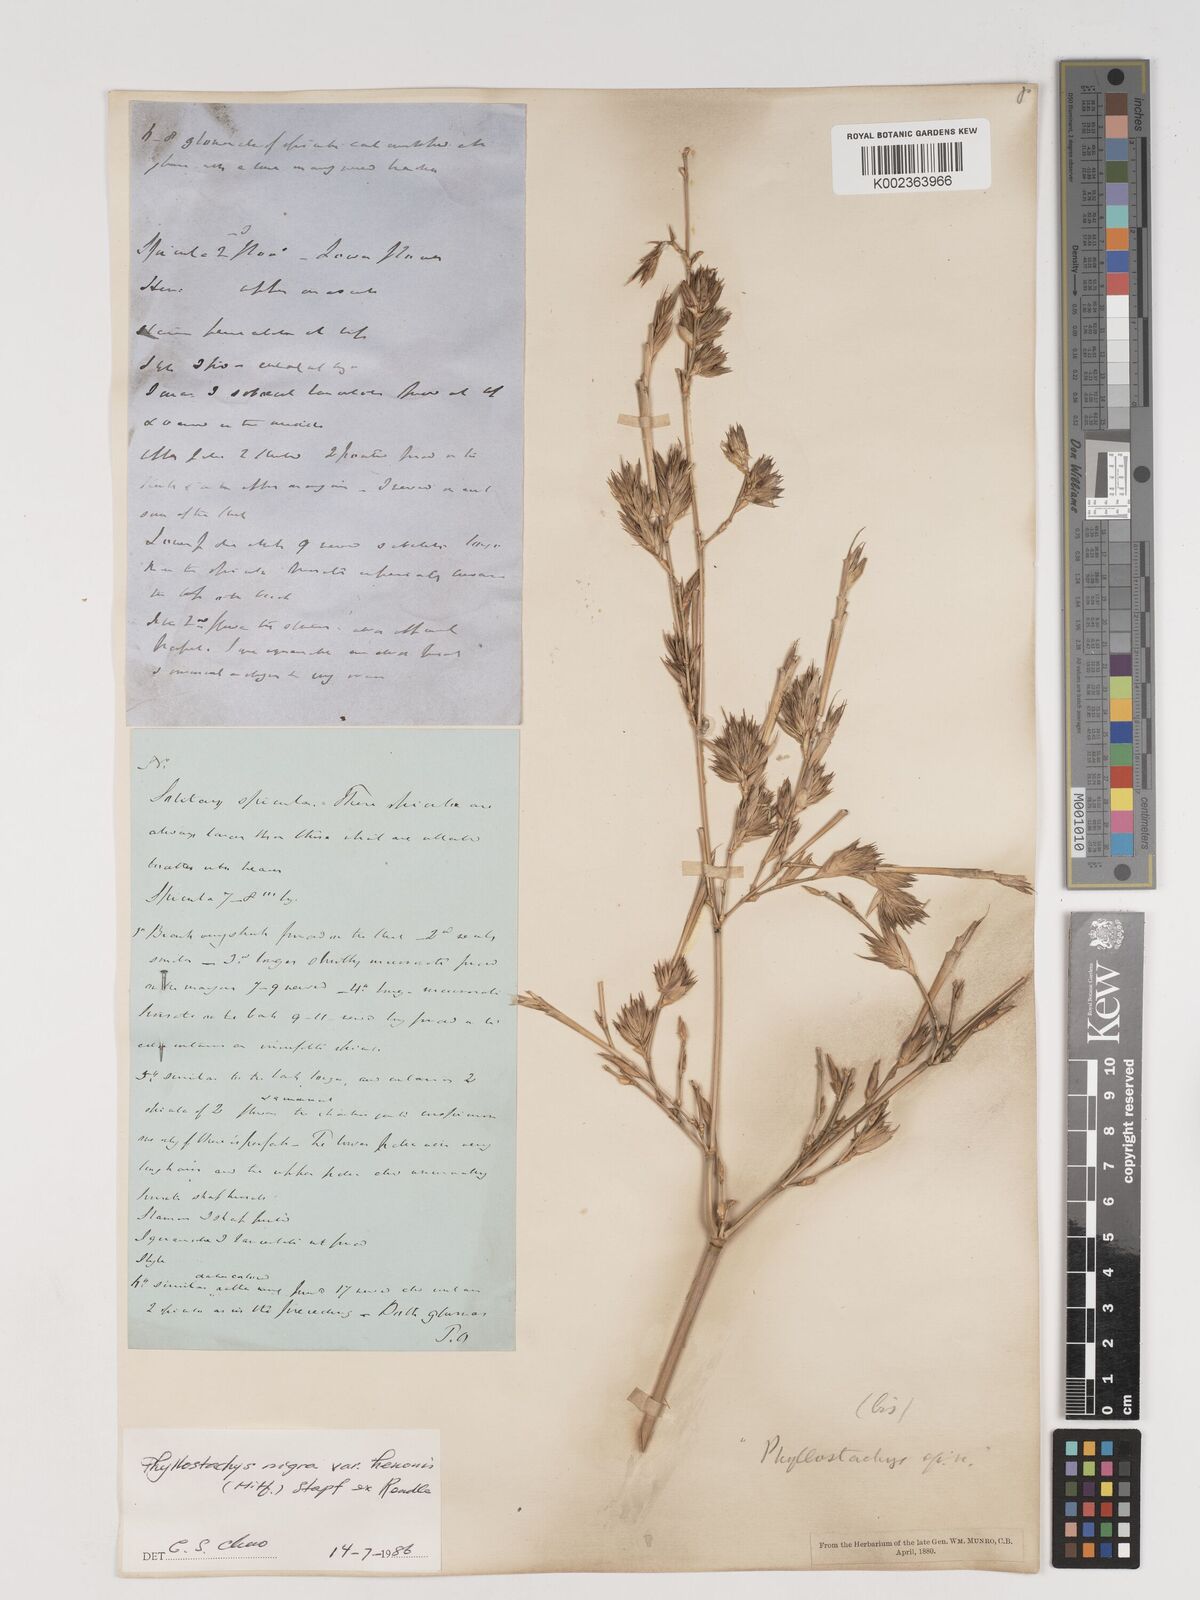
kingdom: Plantae
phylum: Tracheophyta
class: Liliopsida
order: Poales
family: Poaceae
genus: Phyllostachys
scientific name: Phyllostachys nigra
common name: Black bamboo
